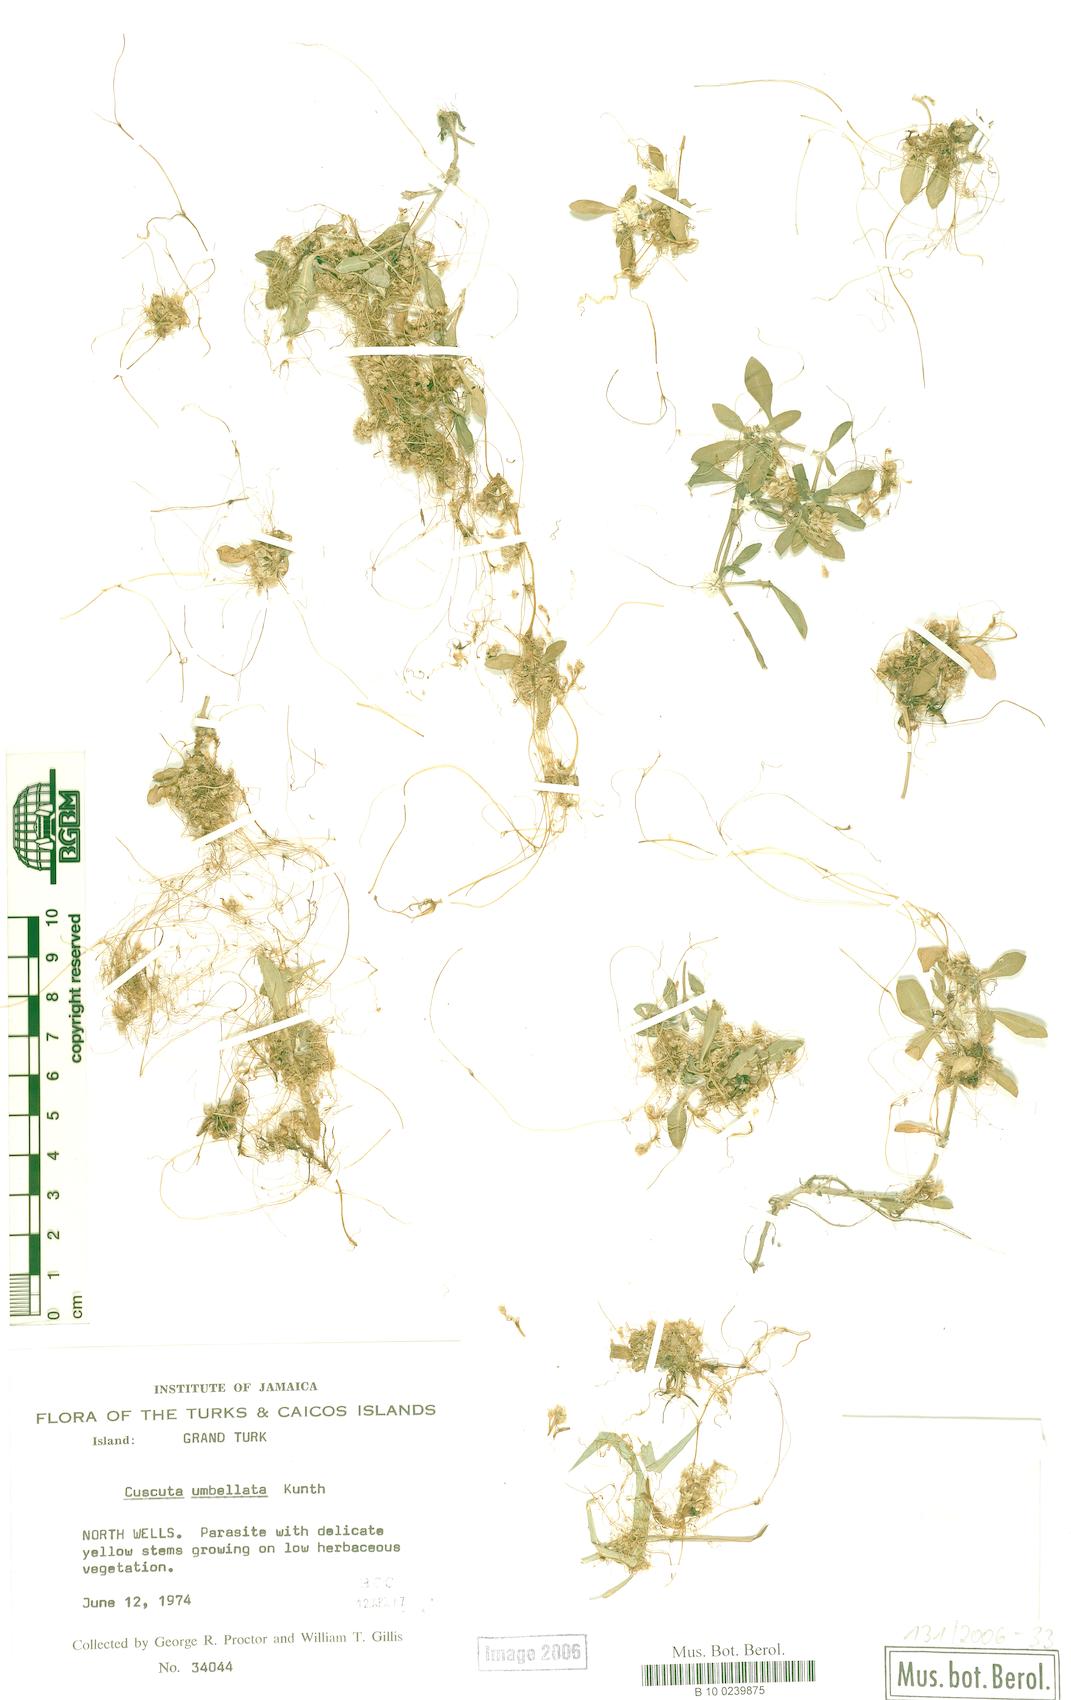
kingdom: Plantae
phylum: Tracheophyta
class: Magnoliopsida
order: Solanales
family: Convolvulaceae
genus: Cuscuta
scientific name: Cuscuta umbellata
